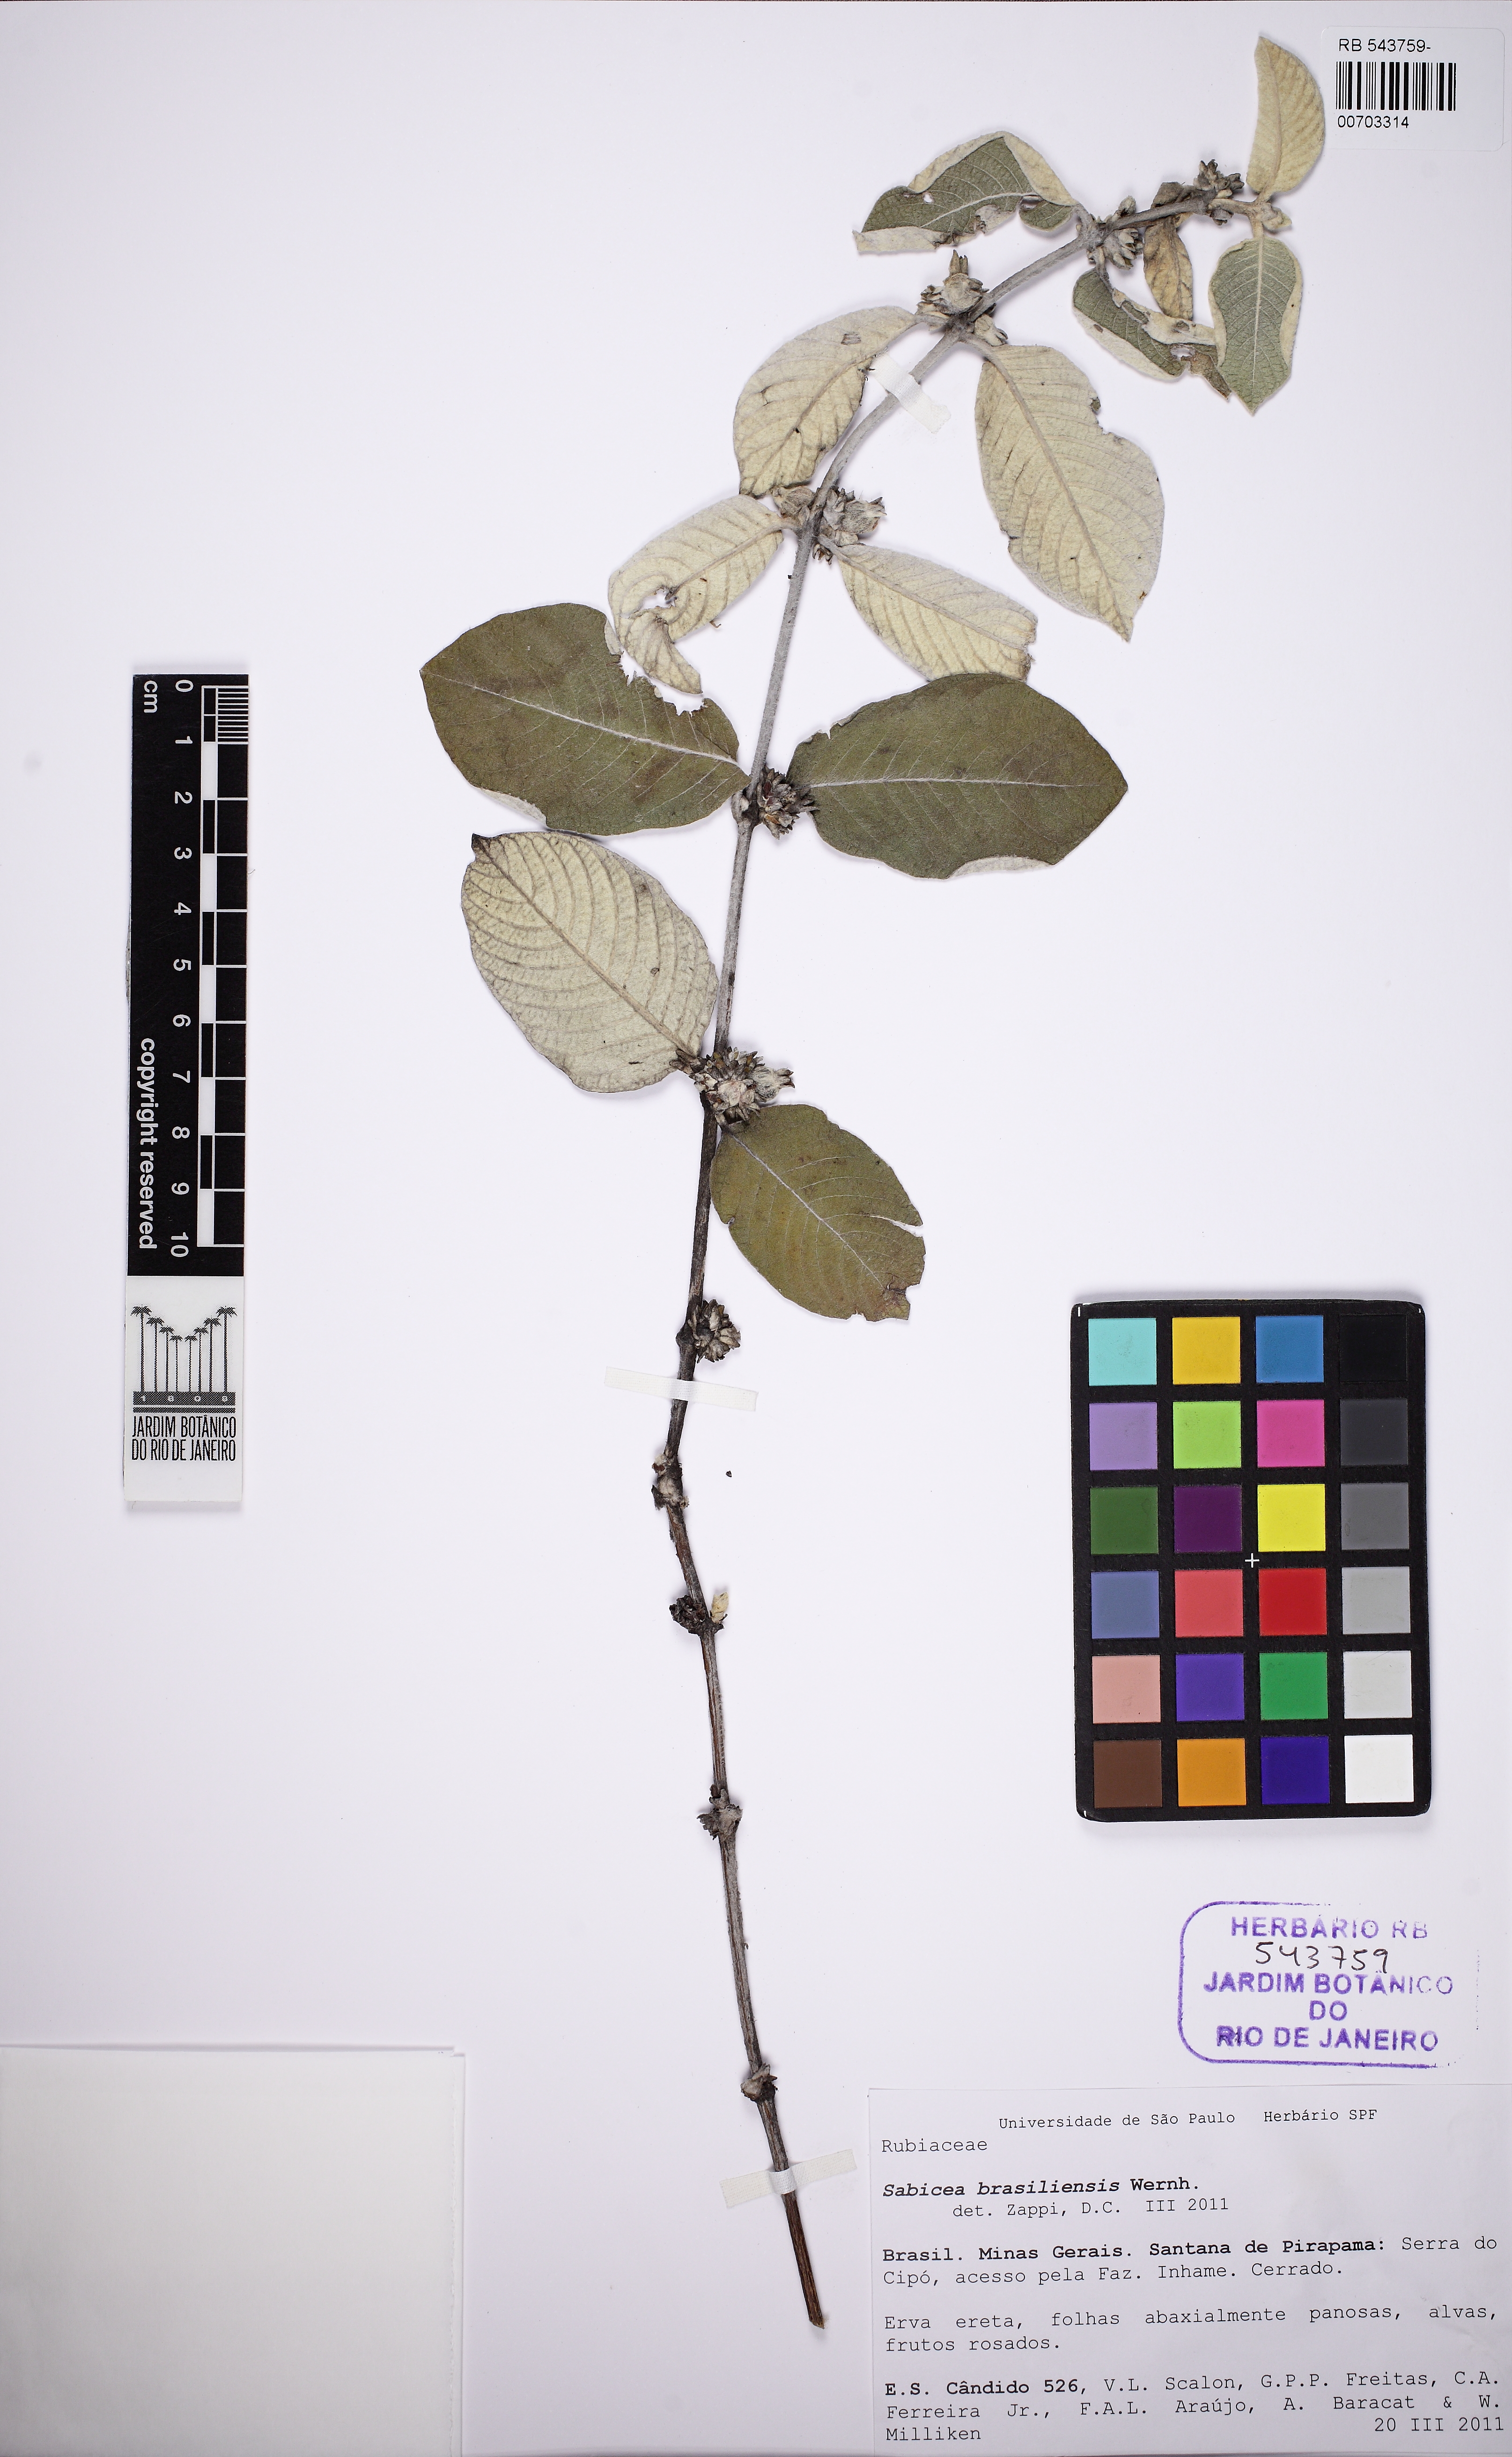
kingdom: Plantae
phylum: Tracheophyta
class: Magnoliopsida
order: Gentianales
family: Rubiaceae
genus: Sabicea
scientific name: Sabicea brasiliensis
